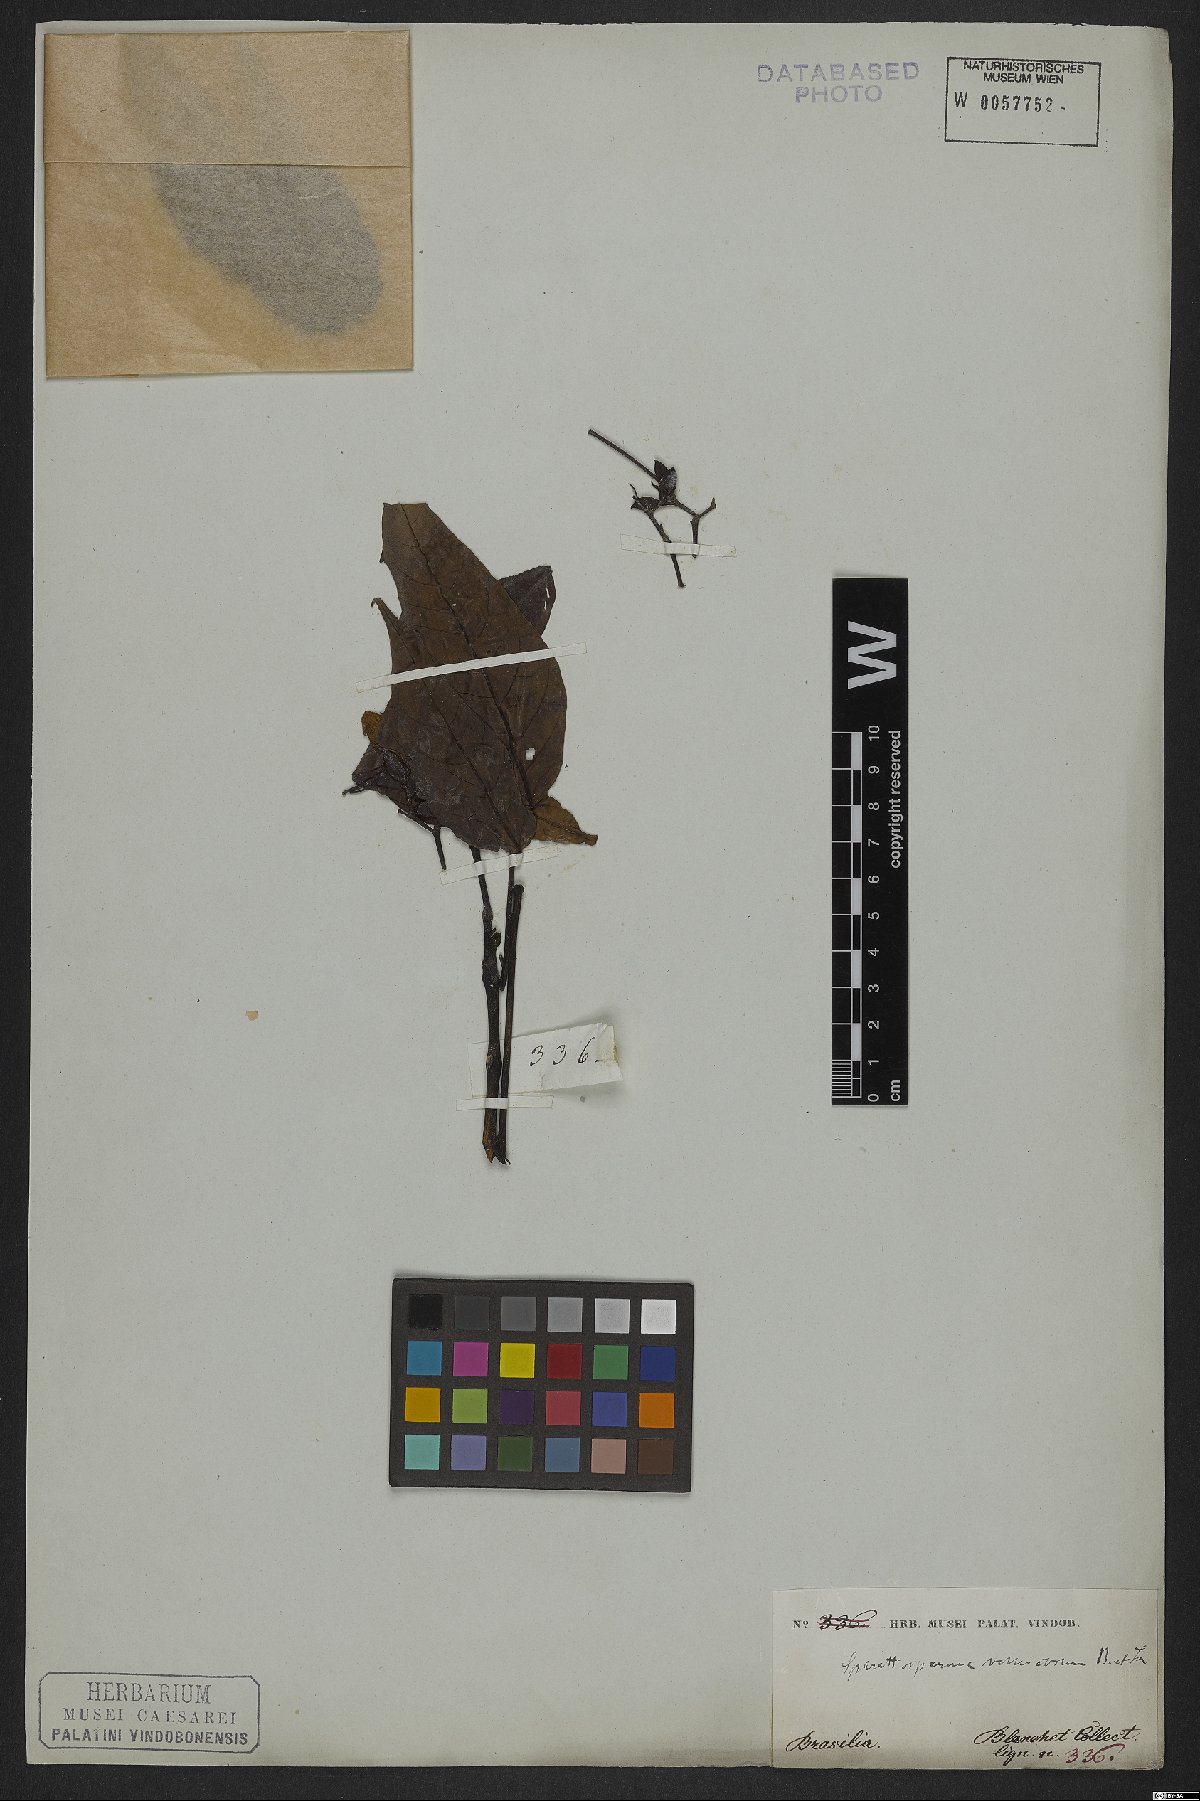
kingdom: Plantae
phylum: Tracheophyta
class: Magnoliopsida
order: Lamiales
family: Bignoniaceae
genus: Sparattosperma
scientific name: Sparattosperma leucanthum
